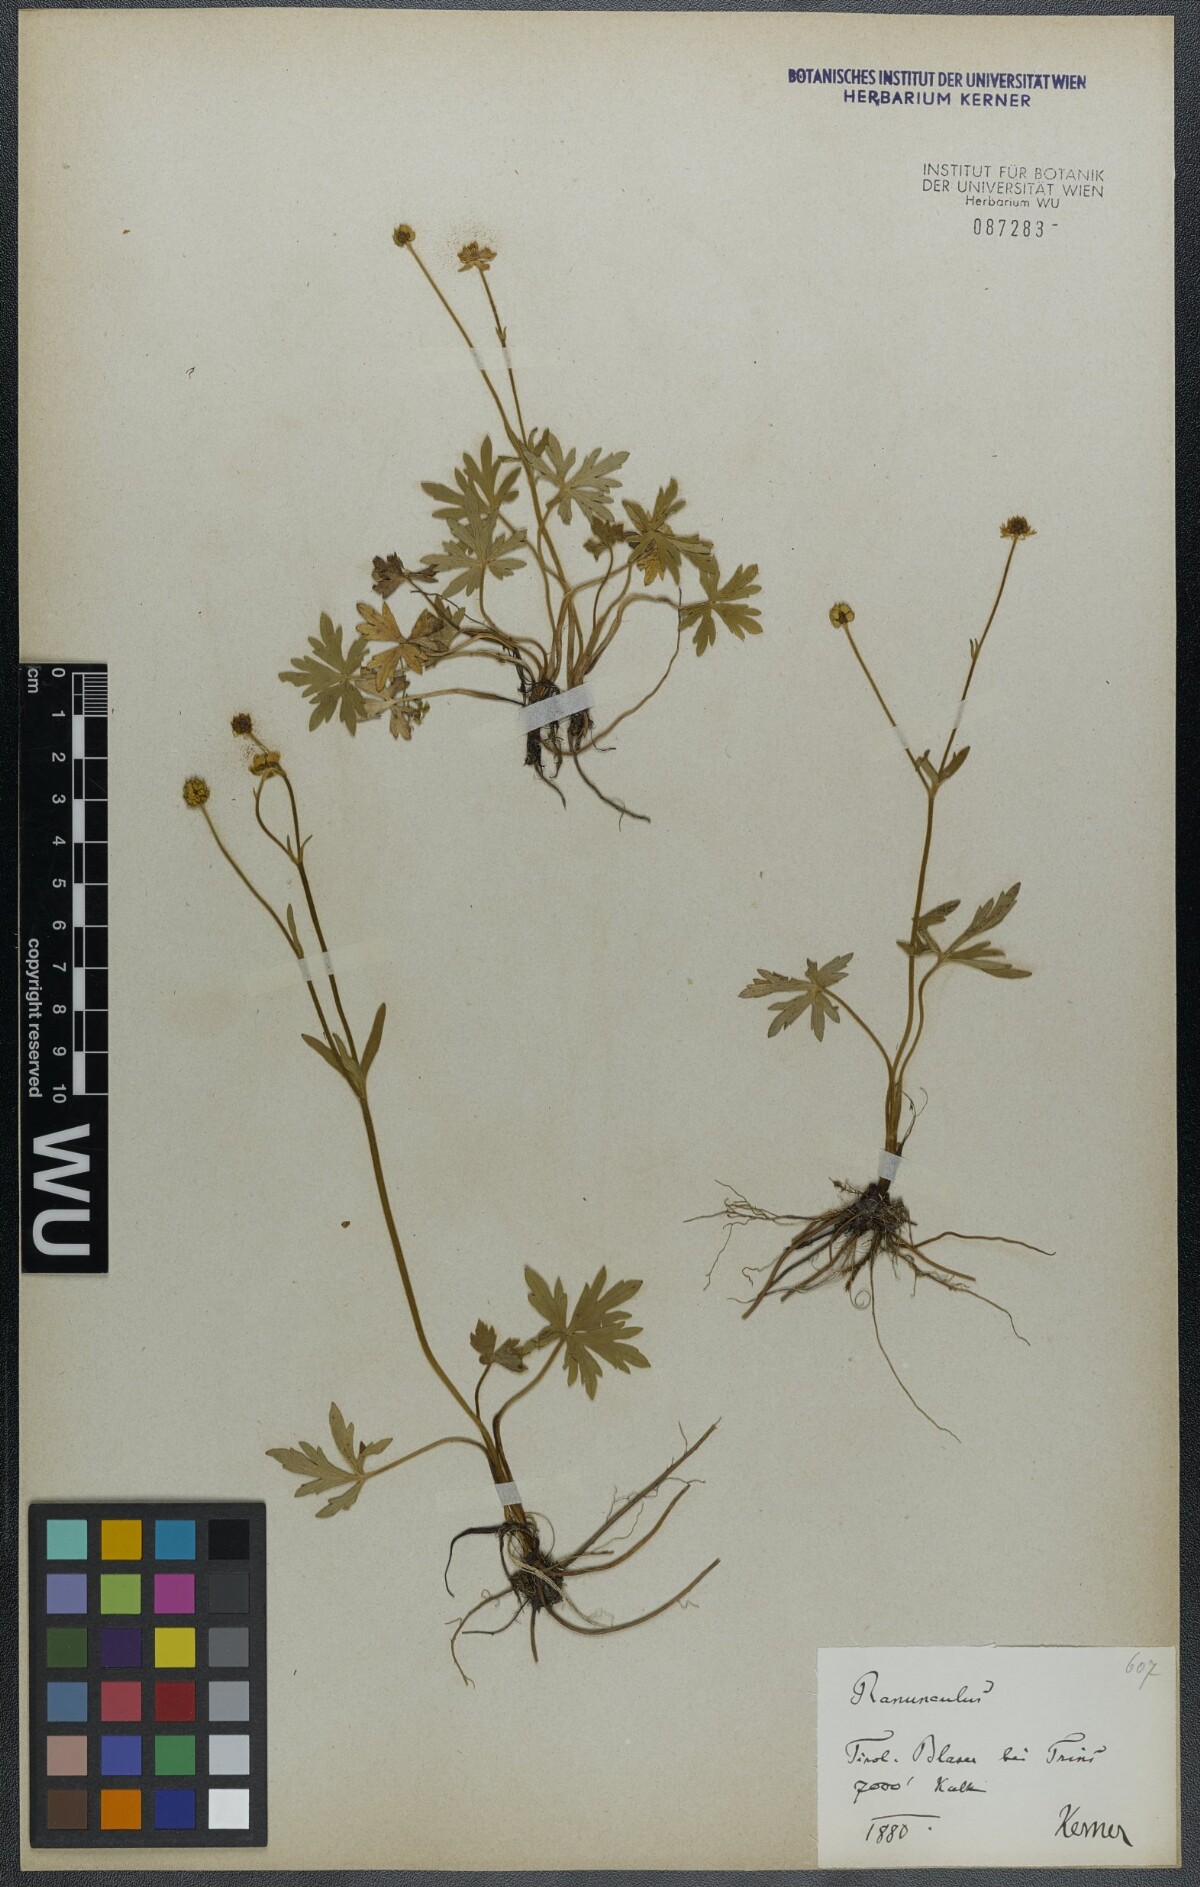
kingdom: Plantae
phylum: Tracheophyta
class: Magnoliopsida
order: Ranunculales
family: Ranunculaceae
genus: Ranunculus
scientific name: Ranunculus acris
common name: Meadow buttercup
